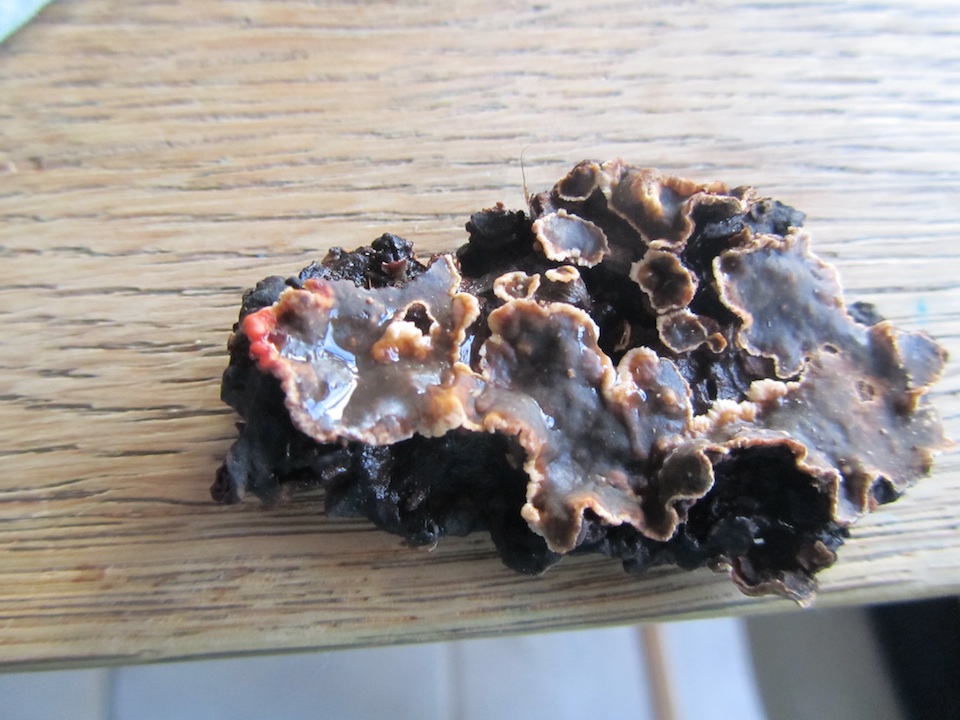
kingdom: Fungi
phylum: Basidiomycota
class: Agaricomycetes
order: Russulales
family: Stereaceae
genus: Stereum
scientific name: Stereum rugosum
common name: rynket lædersvamp
